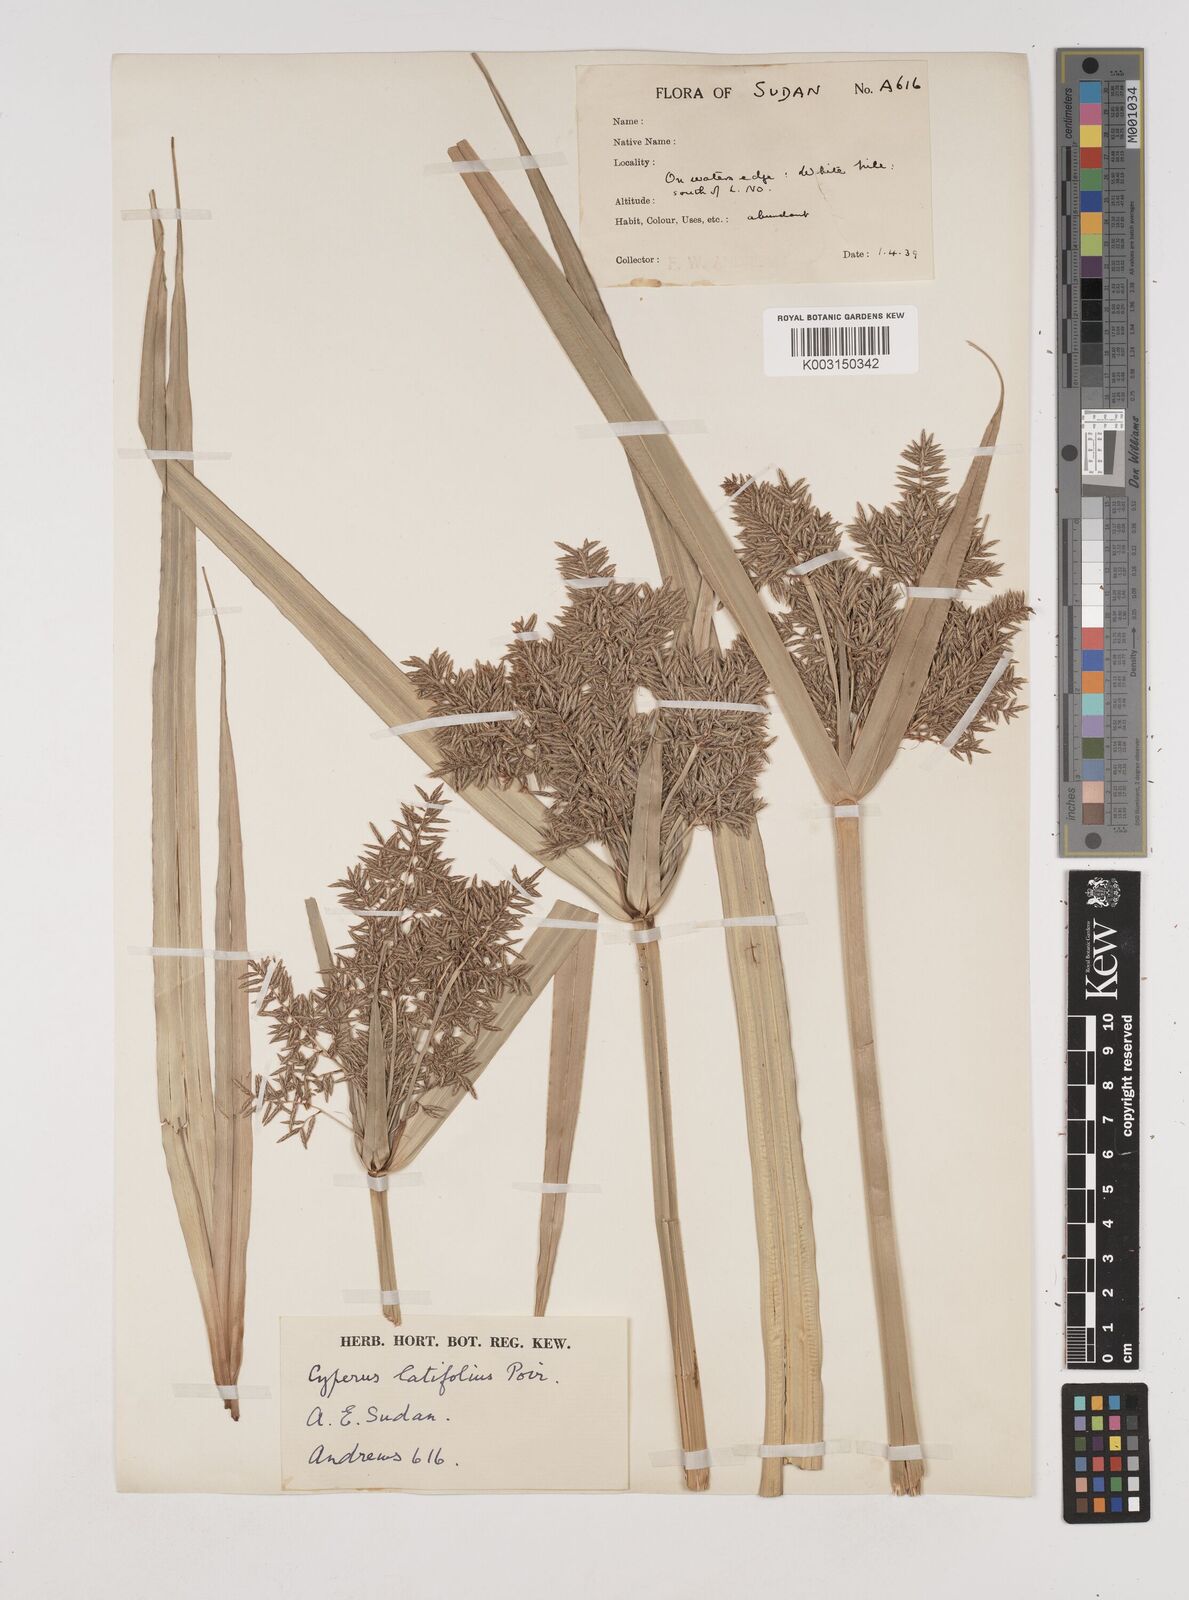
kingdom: Plantae
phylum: Tracheophyta
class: Liliopsida
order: Poales
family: Cyperaceae
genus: Cyperus
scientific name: Cyperus latifolius
